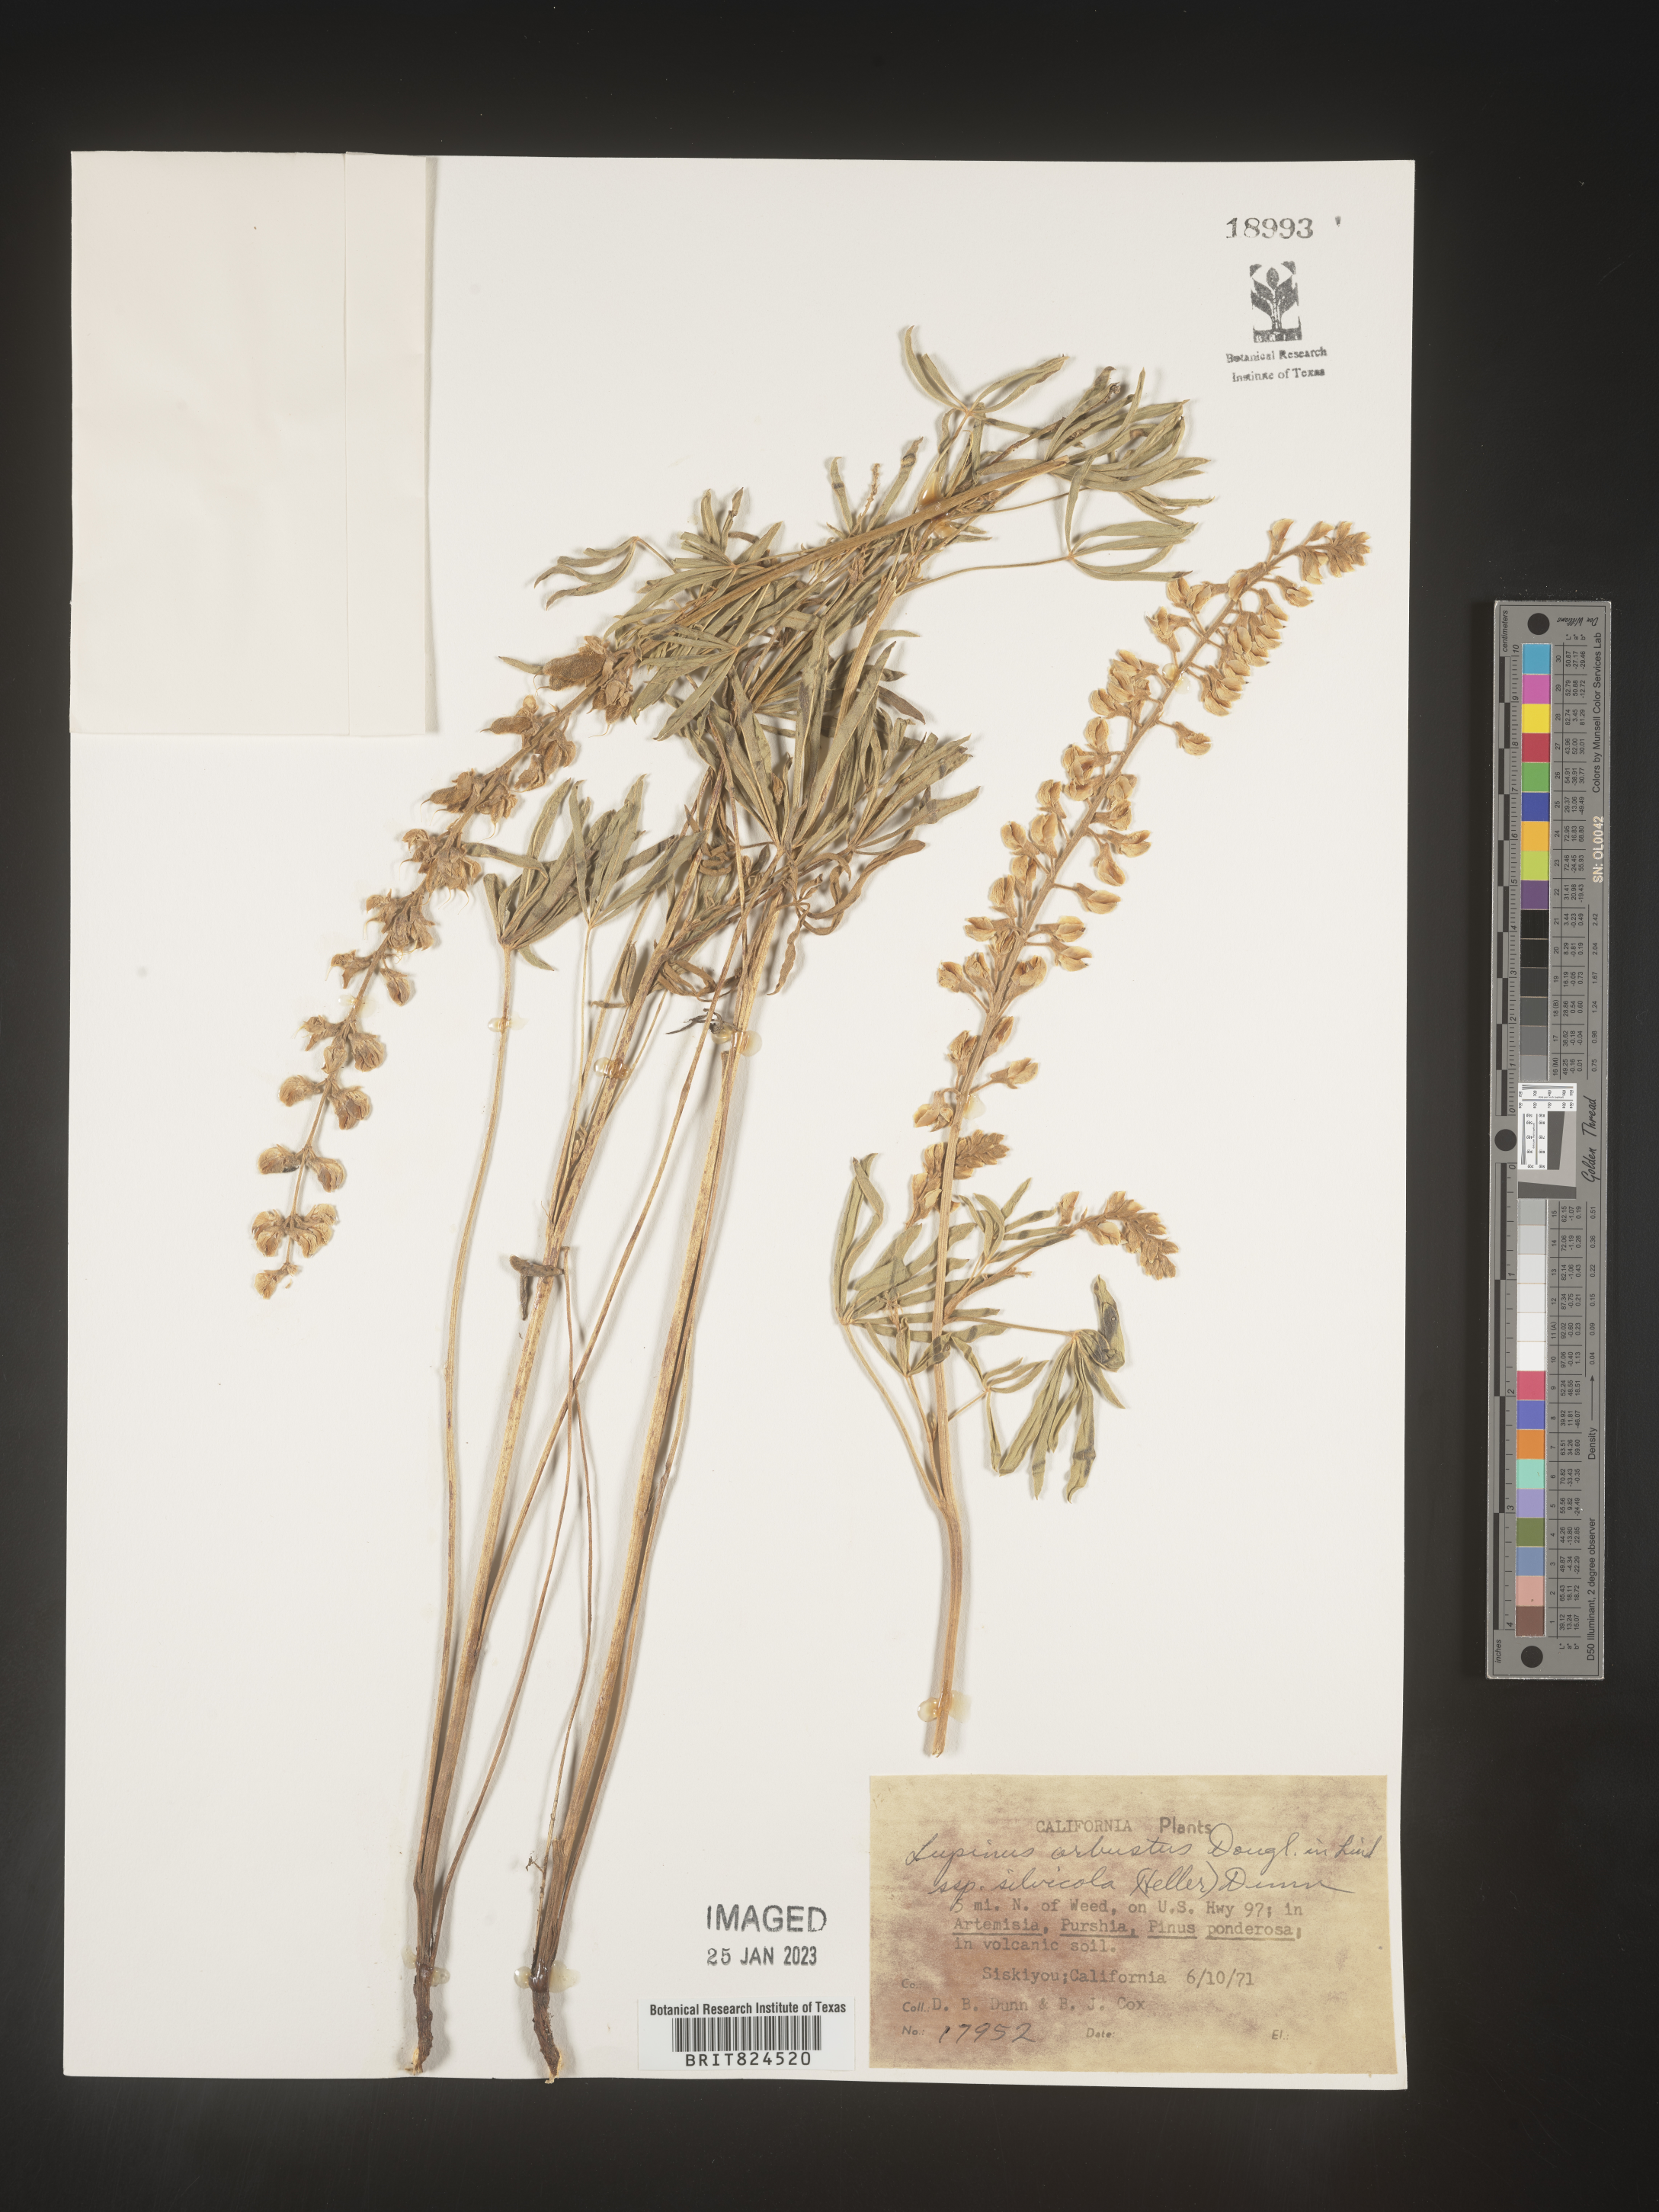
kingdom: Plantae
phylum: Tracheophyta
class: Magnoliopsida
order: Fabales
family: Fabaceae
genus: Lupinus
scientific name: Lupinus arbustus
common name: Montana lupine
